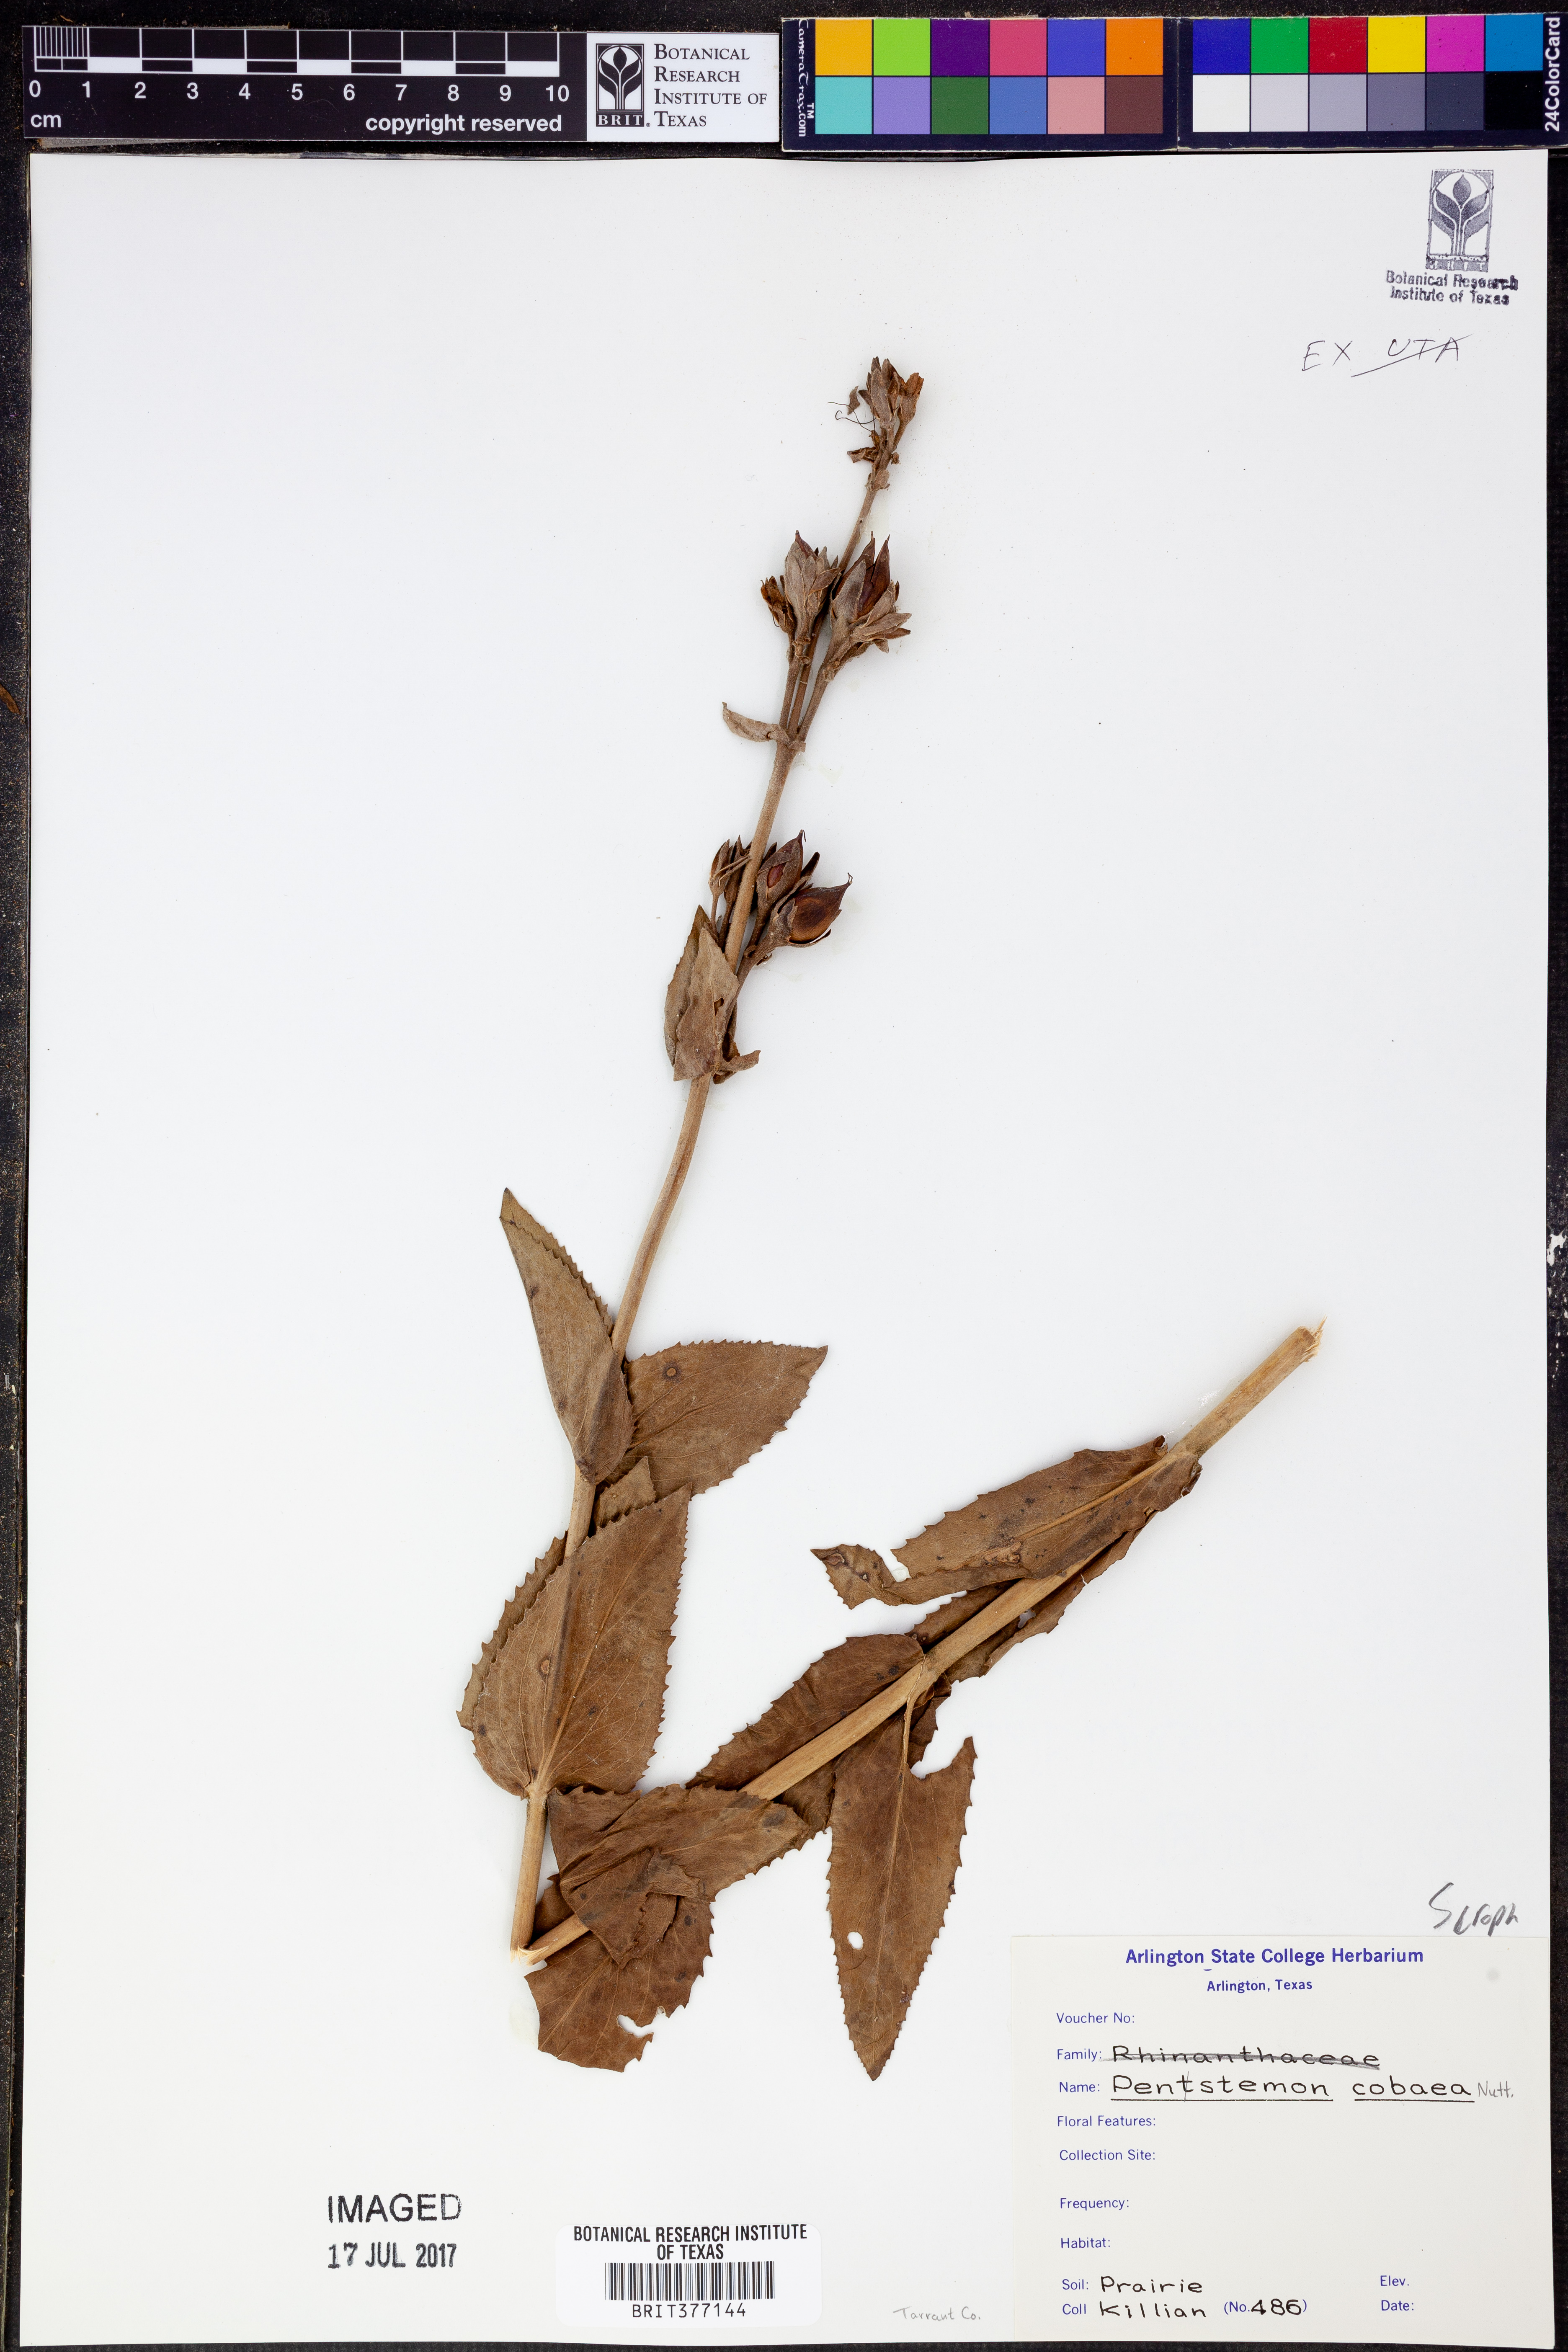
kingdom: Plantae
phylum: Tracheophyta
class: Magnoliopsida
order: Lamiales
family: Plantaginaceae
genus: Penstemon
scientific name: Penstemon cobaea
